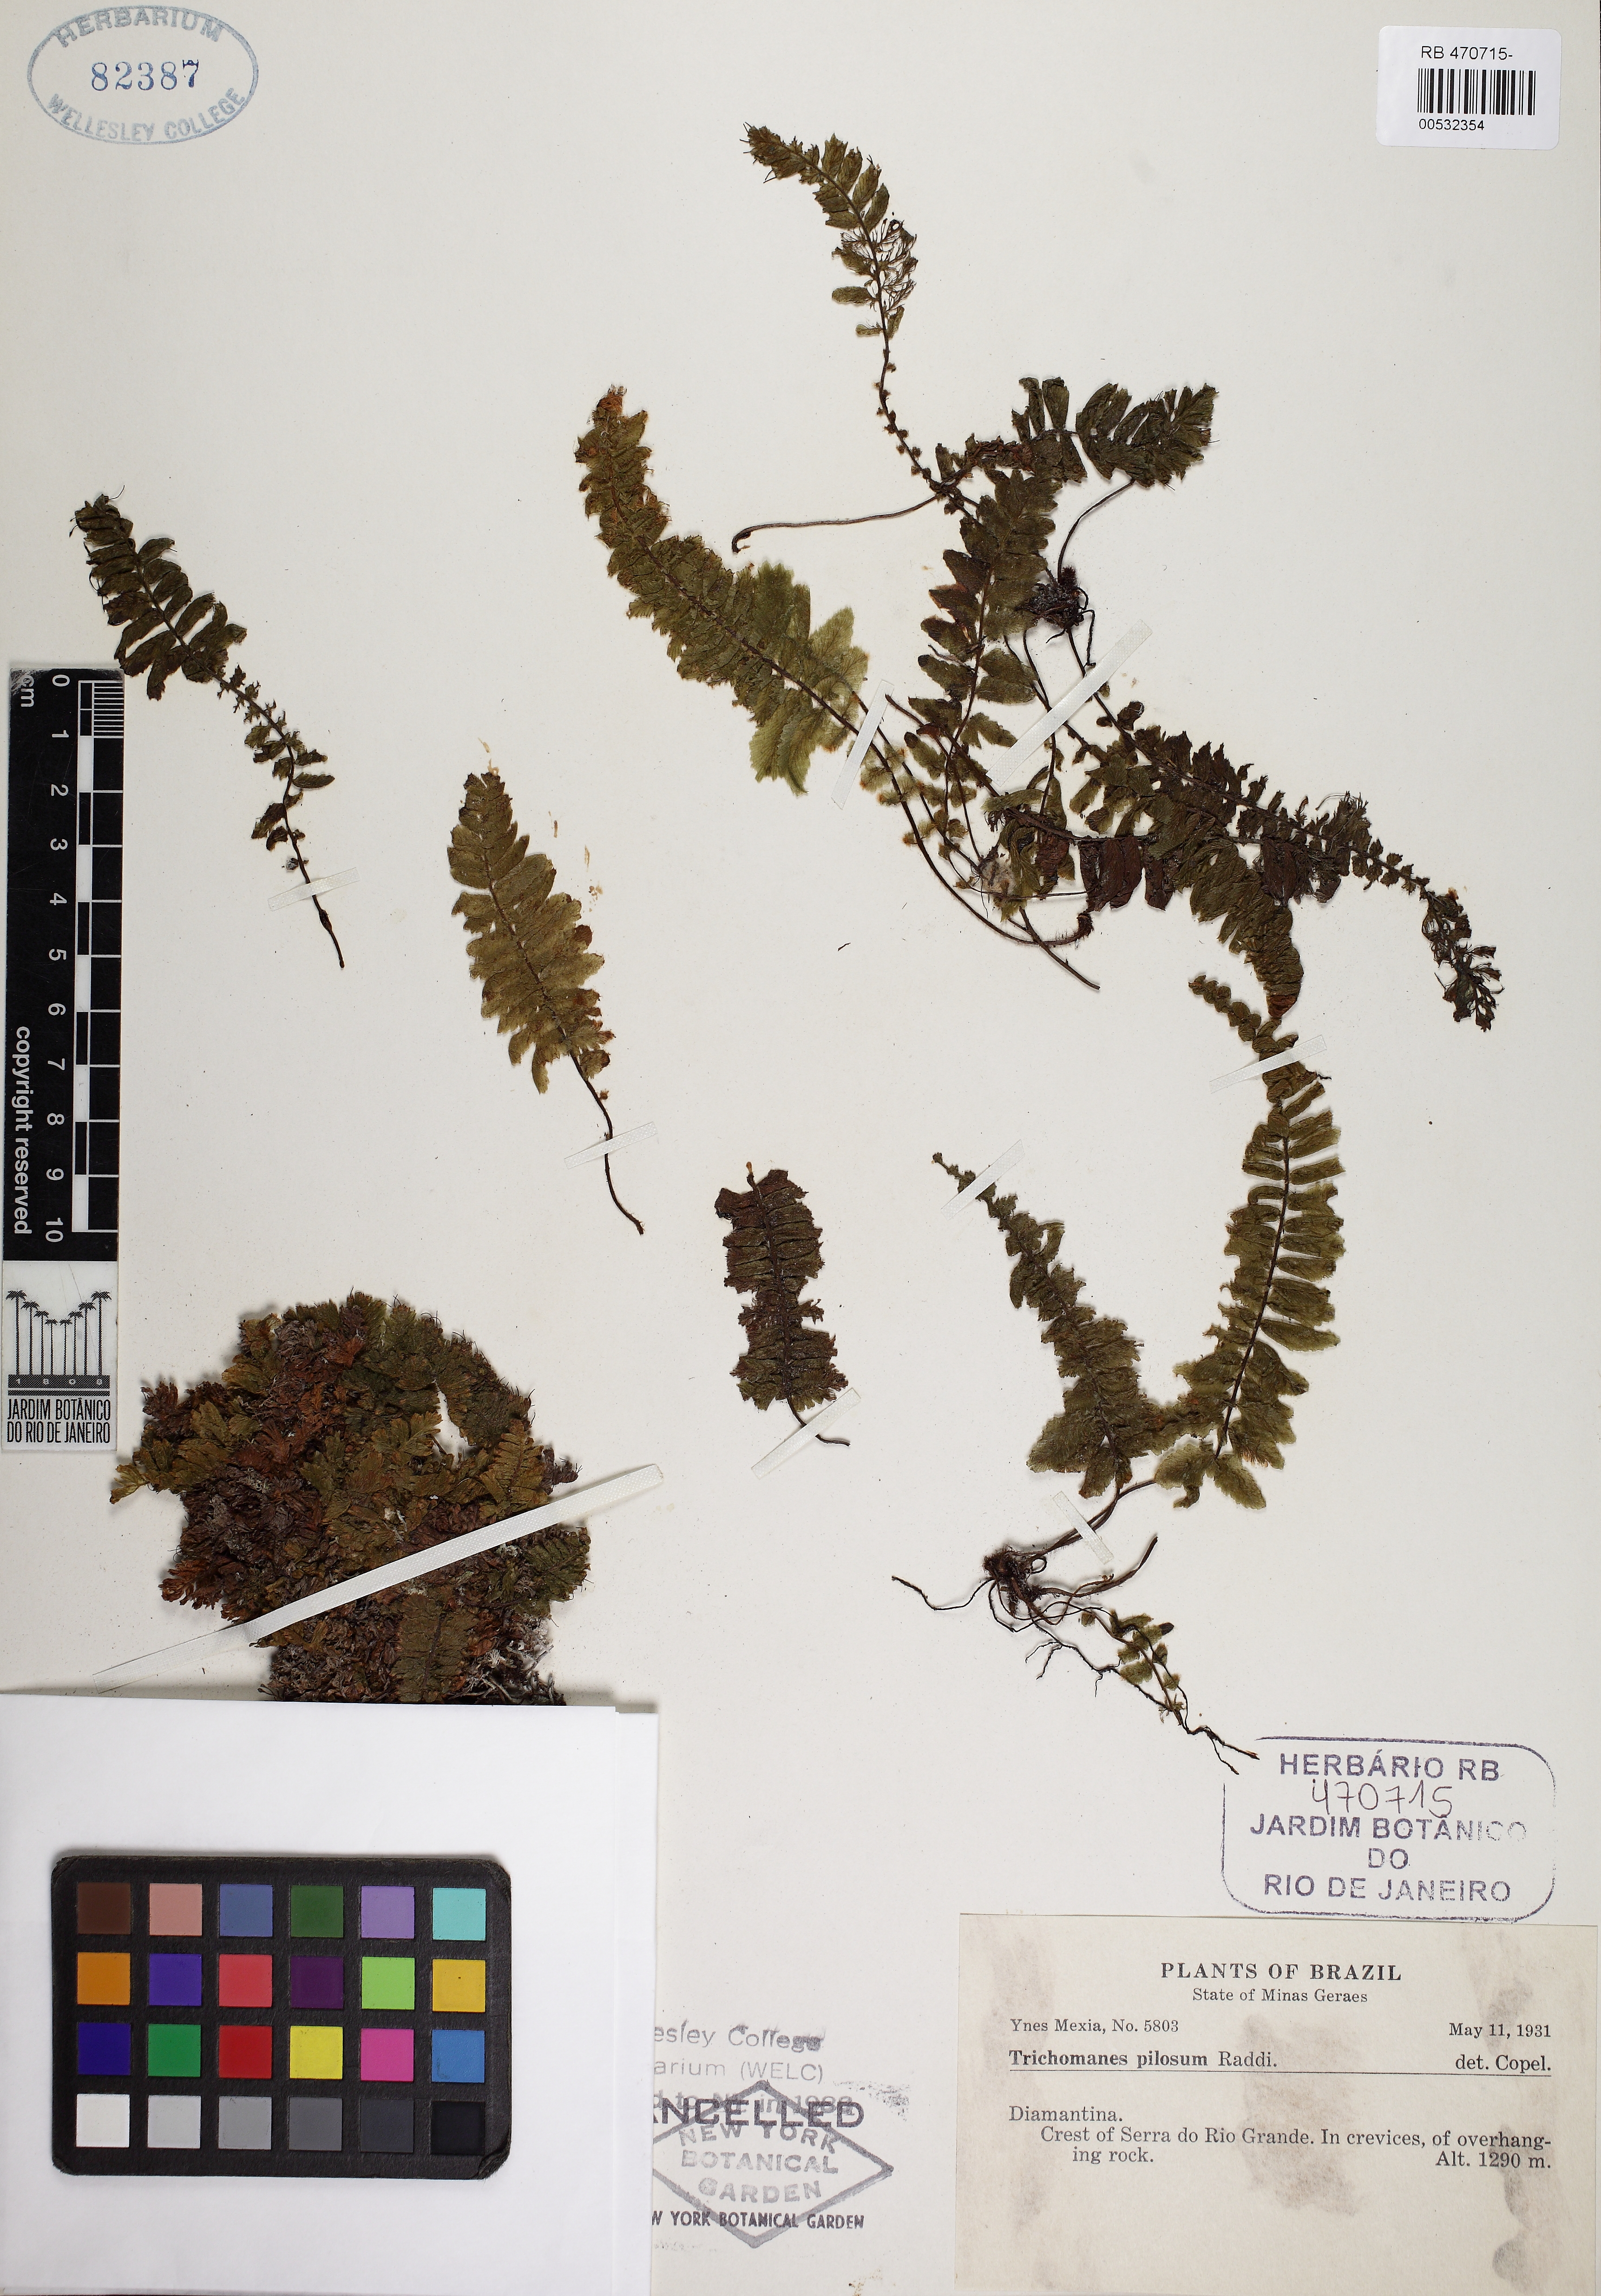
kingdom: Plantae
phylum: Tracheophyta
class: Polypodiopsida
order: Hymenophyllales
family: Hymenophyllaceae
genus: Trichomanes
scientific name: Trichomanes pilosum
